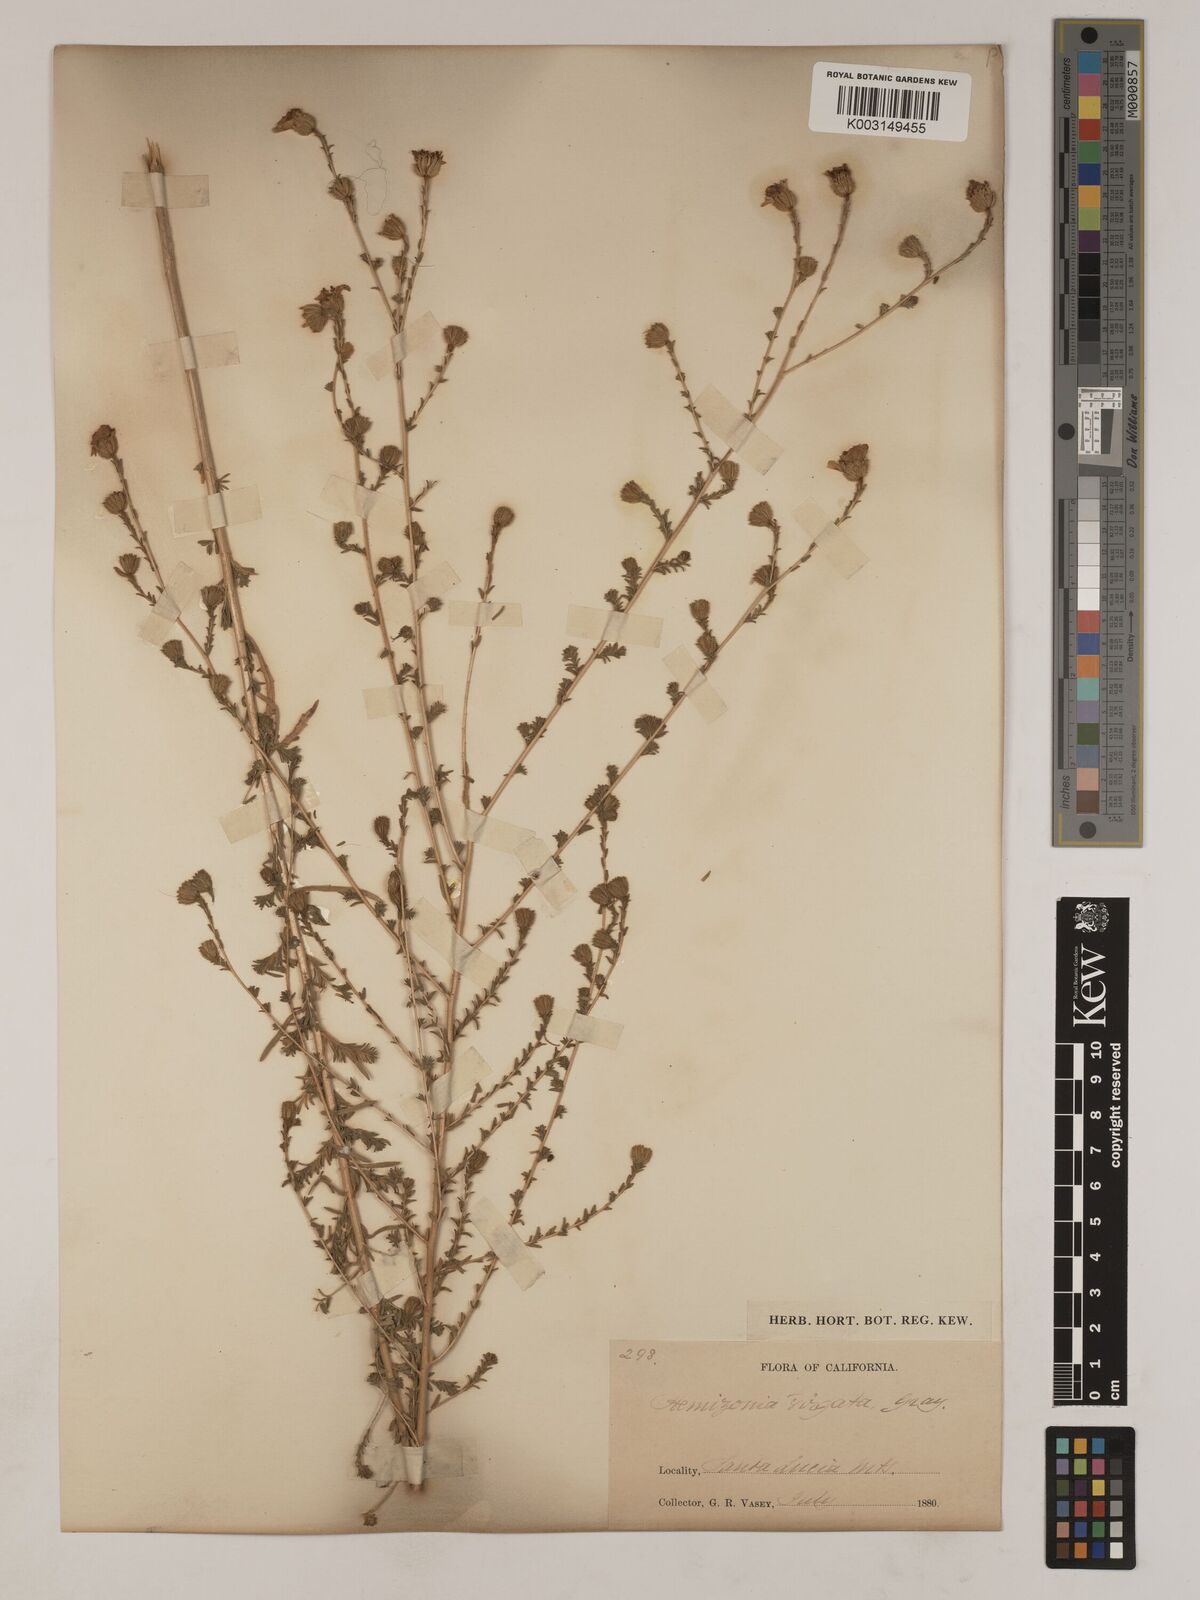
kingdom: Plantae
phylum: Tracheophyta
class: Magnoliopsida
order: Asterales
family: Asteraceae
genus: Holocarpha
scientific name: Holocarpha virgata
